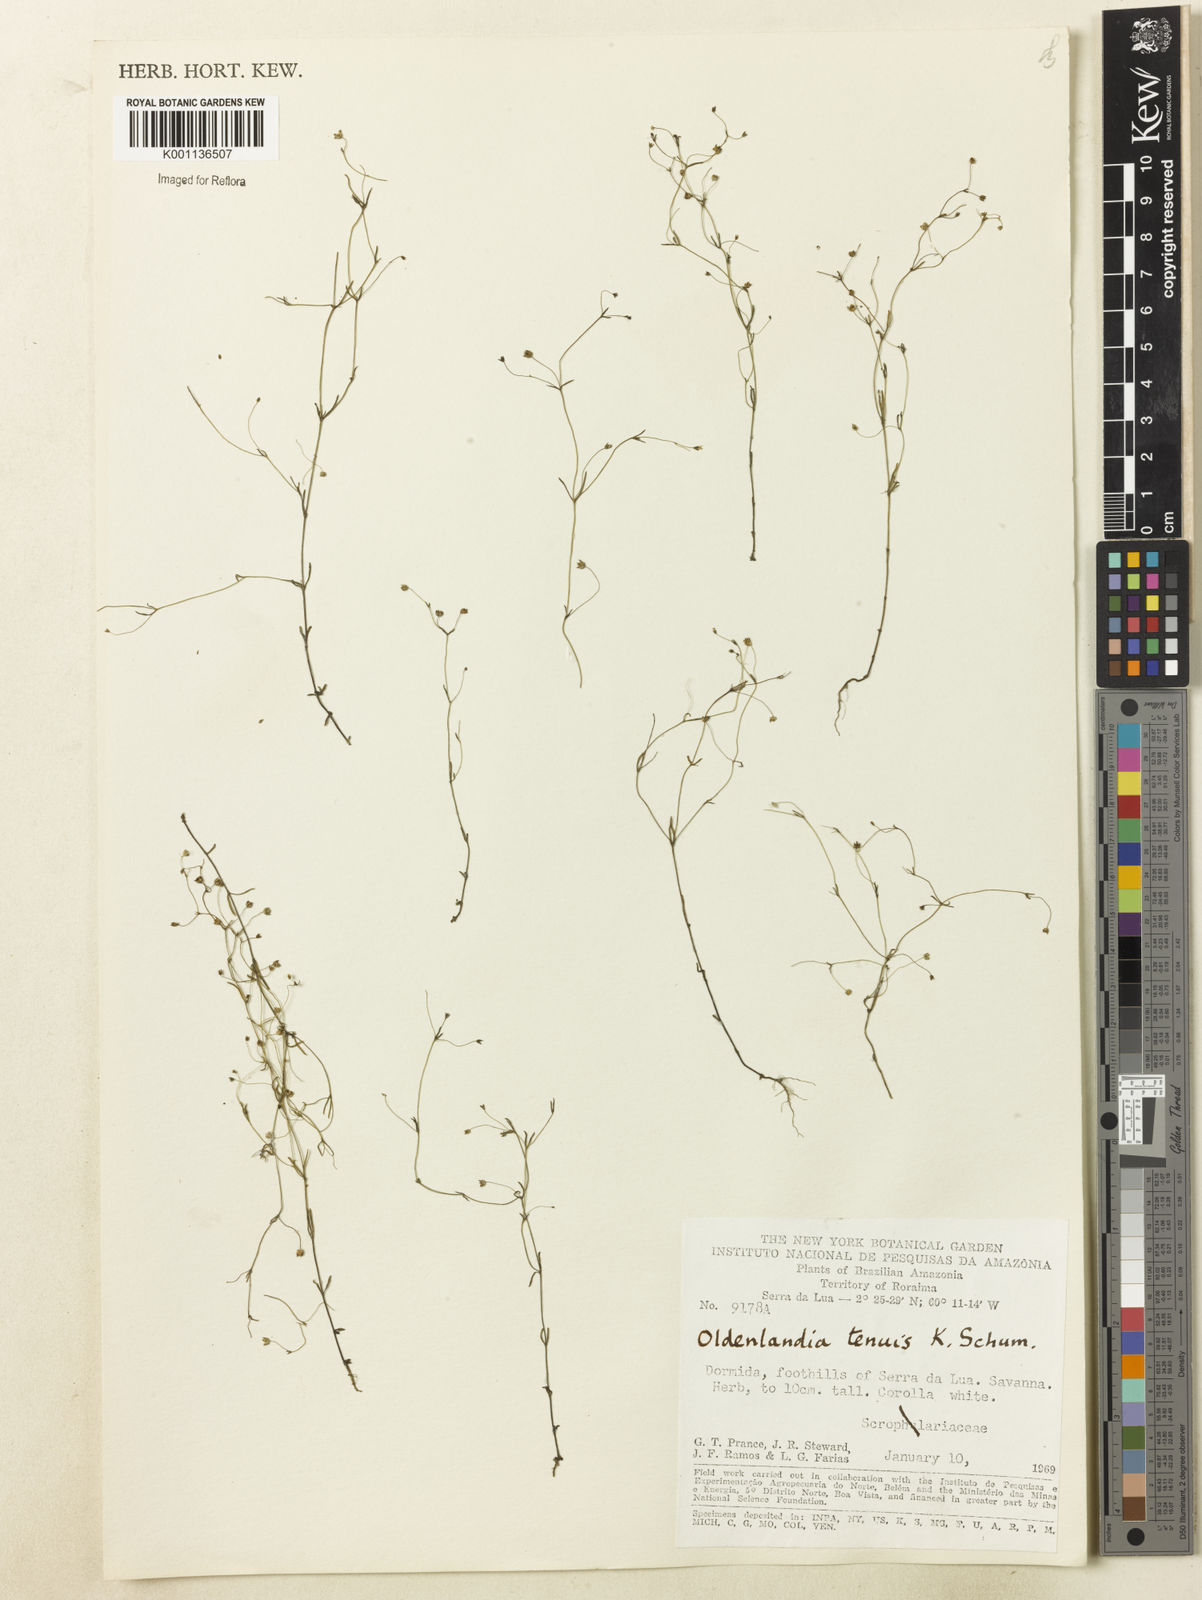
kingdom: Plantae
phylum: Tracheophyta
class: Magnoliopsida
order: Gentianales
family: Rubiaceae
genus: Oldenlandia
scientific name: Oldenlandia tenuis
